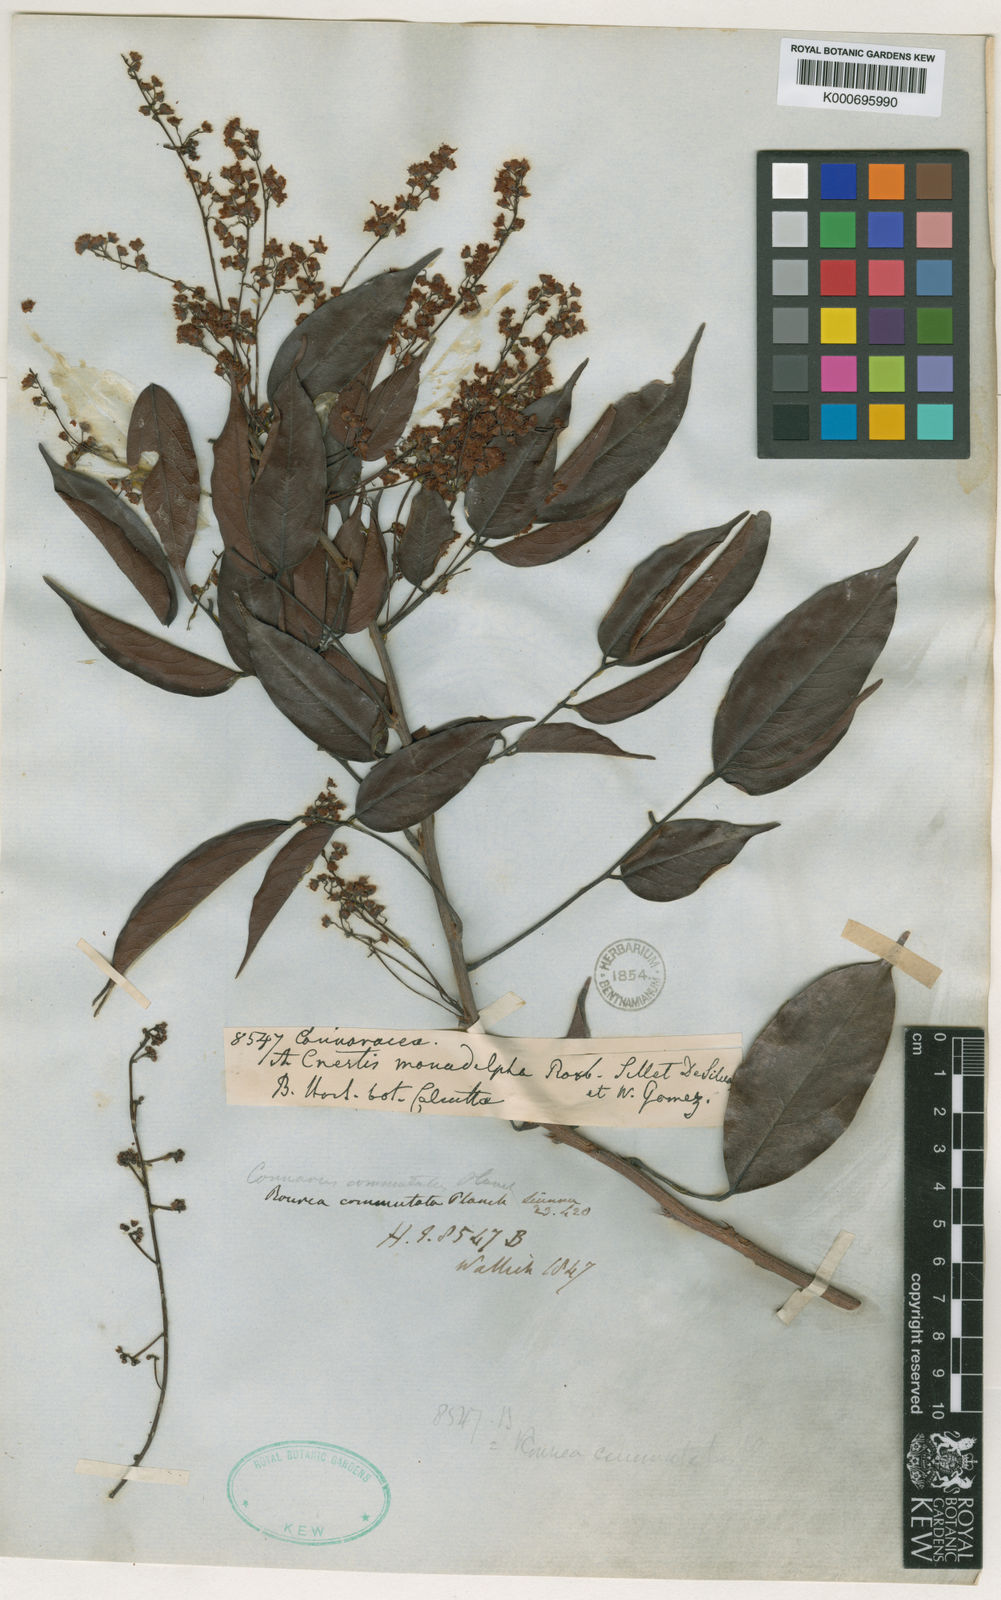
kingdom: Plantae
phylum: Tracheophyta
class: Magnoliopsida
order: Oxalidales
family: Connaraceae
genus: Rourea
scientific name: Rourea minor
